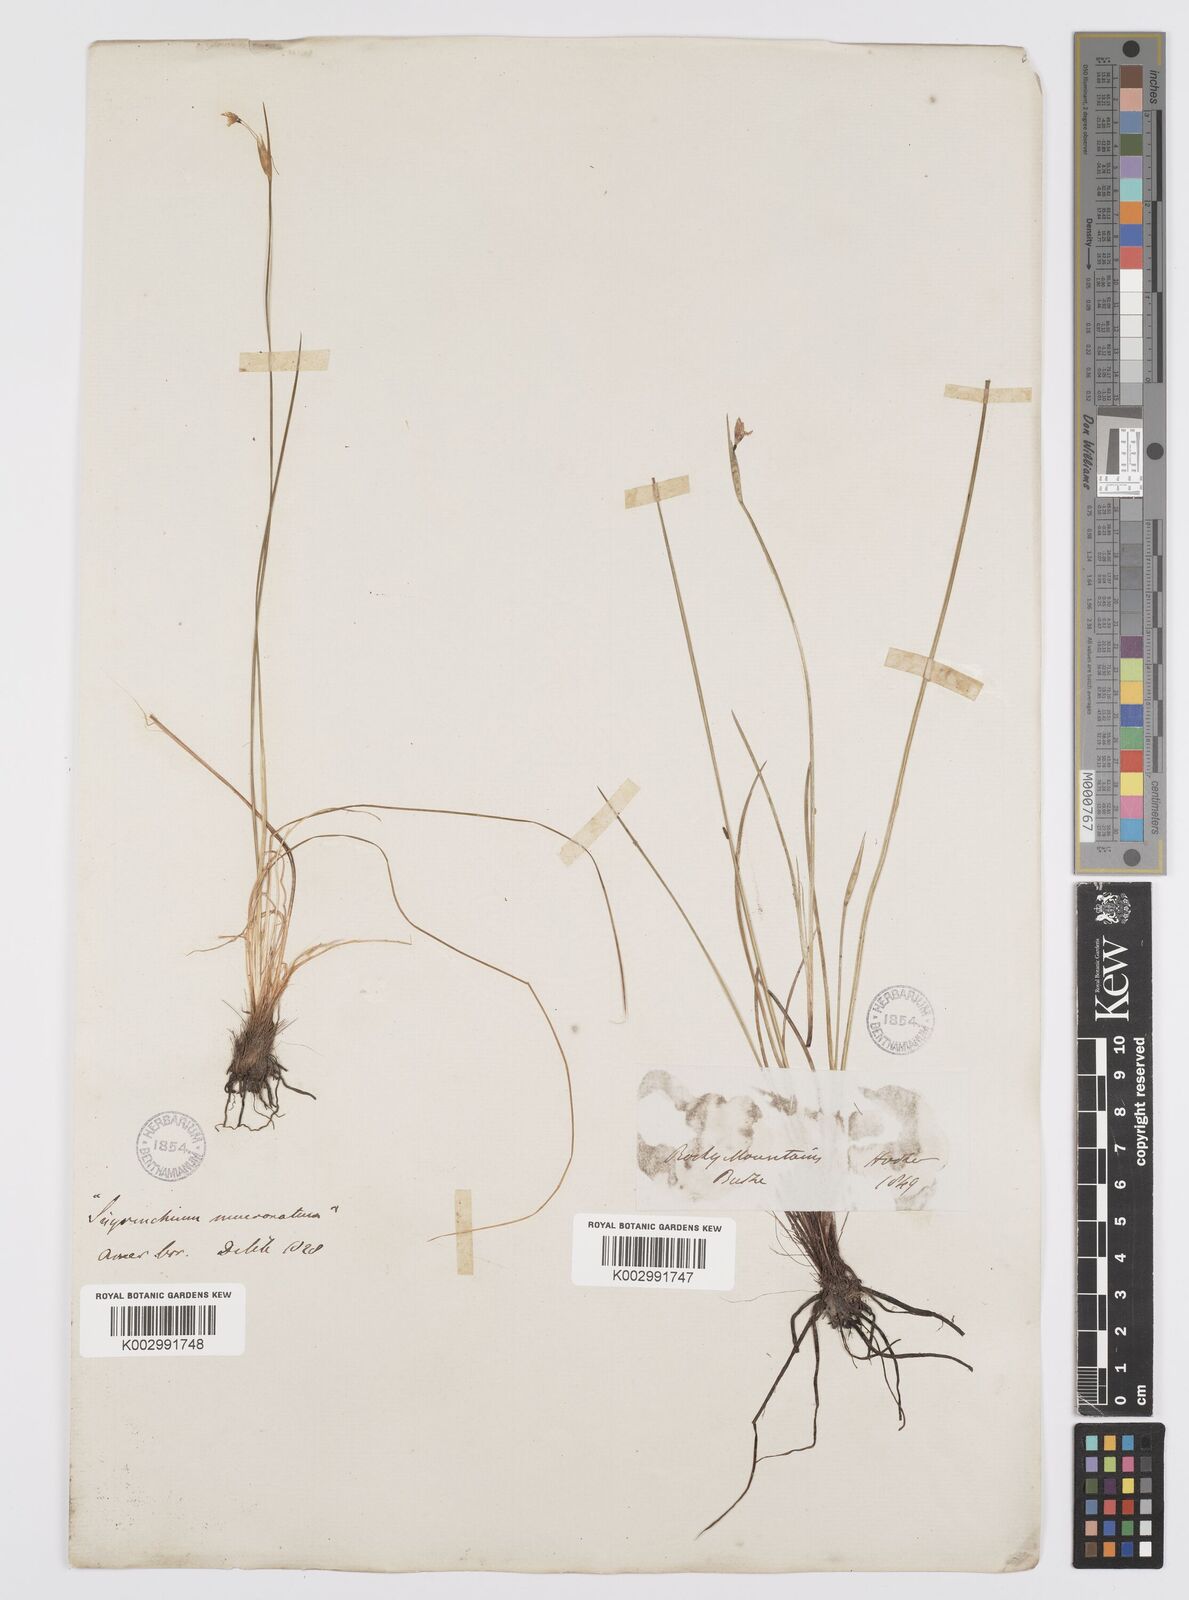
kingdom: Plantae
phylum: Tracheophyta
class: Liliopsida
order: Asparagales
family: Iridaceae
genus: Sisyrinchium
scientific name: Sisyrinchium bermudiana
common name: Blue-eyed-grass
